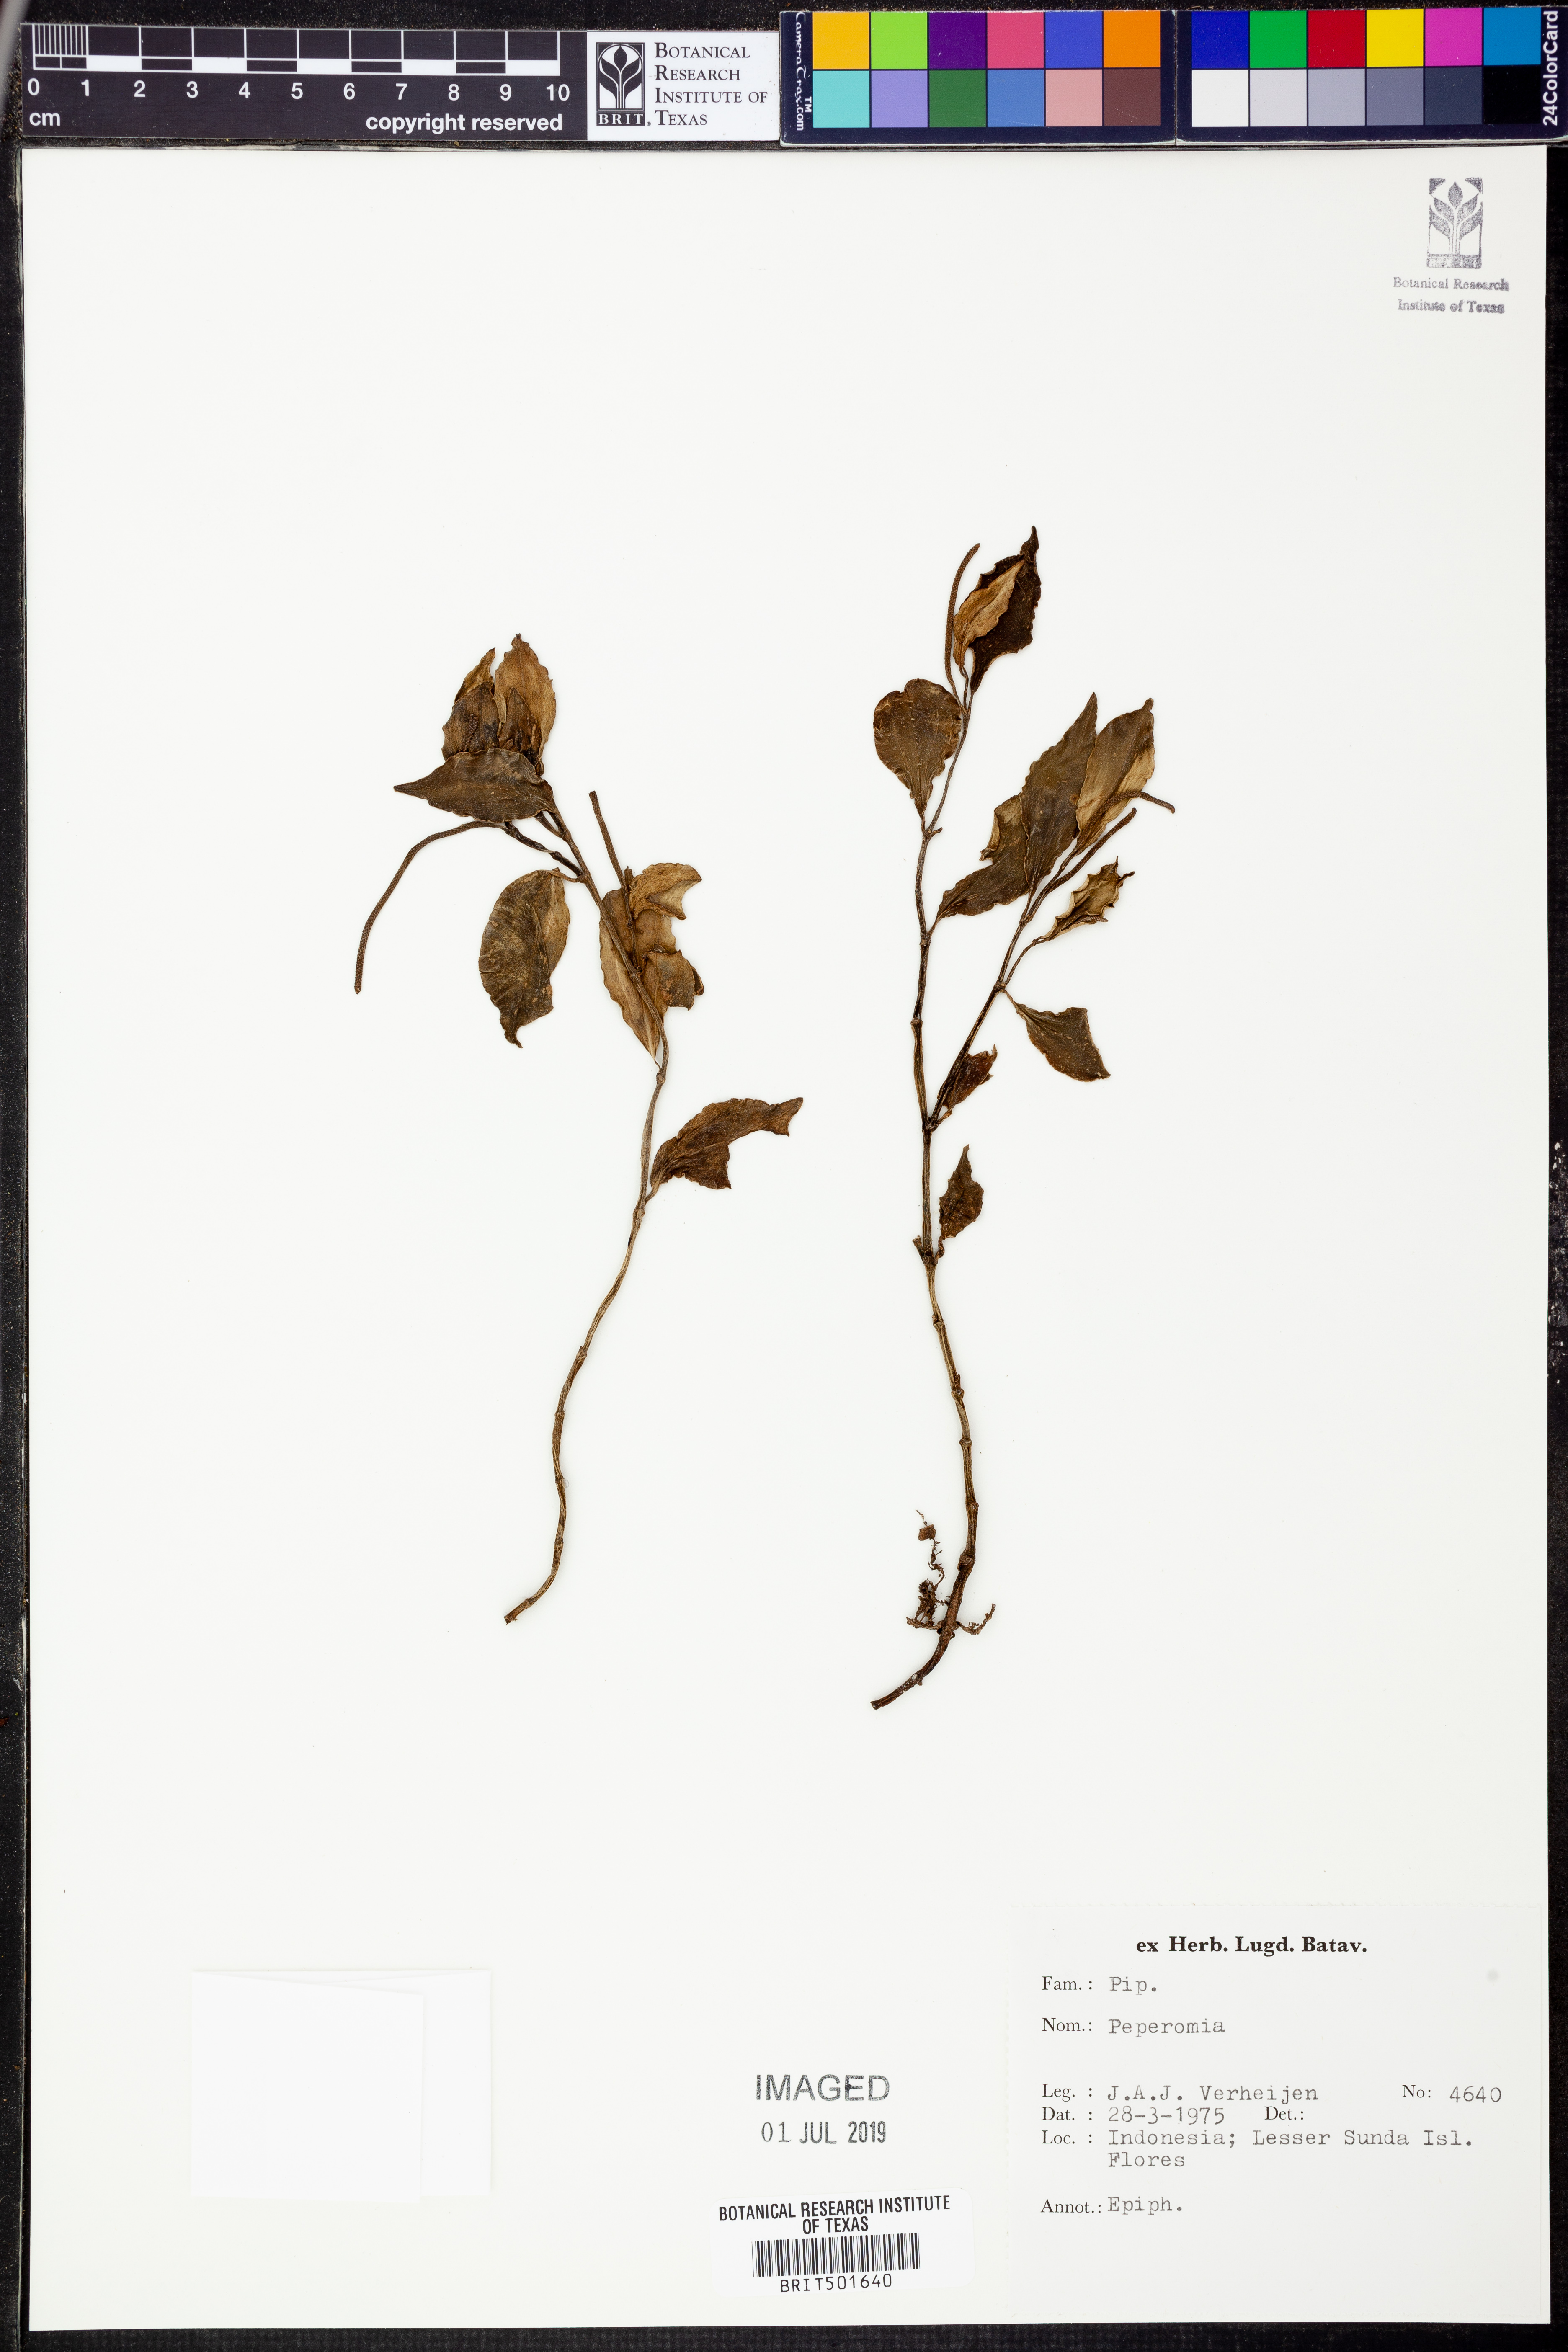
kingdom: Plantae
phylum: Tracheophyta
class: Magnoliopsida
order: Piperales
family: Piperaceae
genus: Peperomia
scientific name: Peperomia
